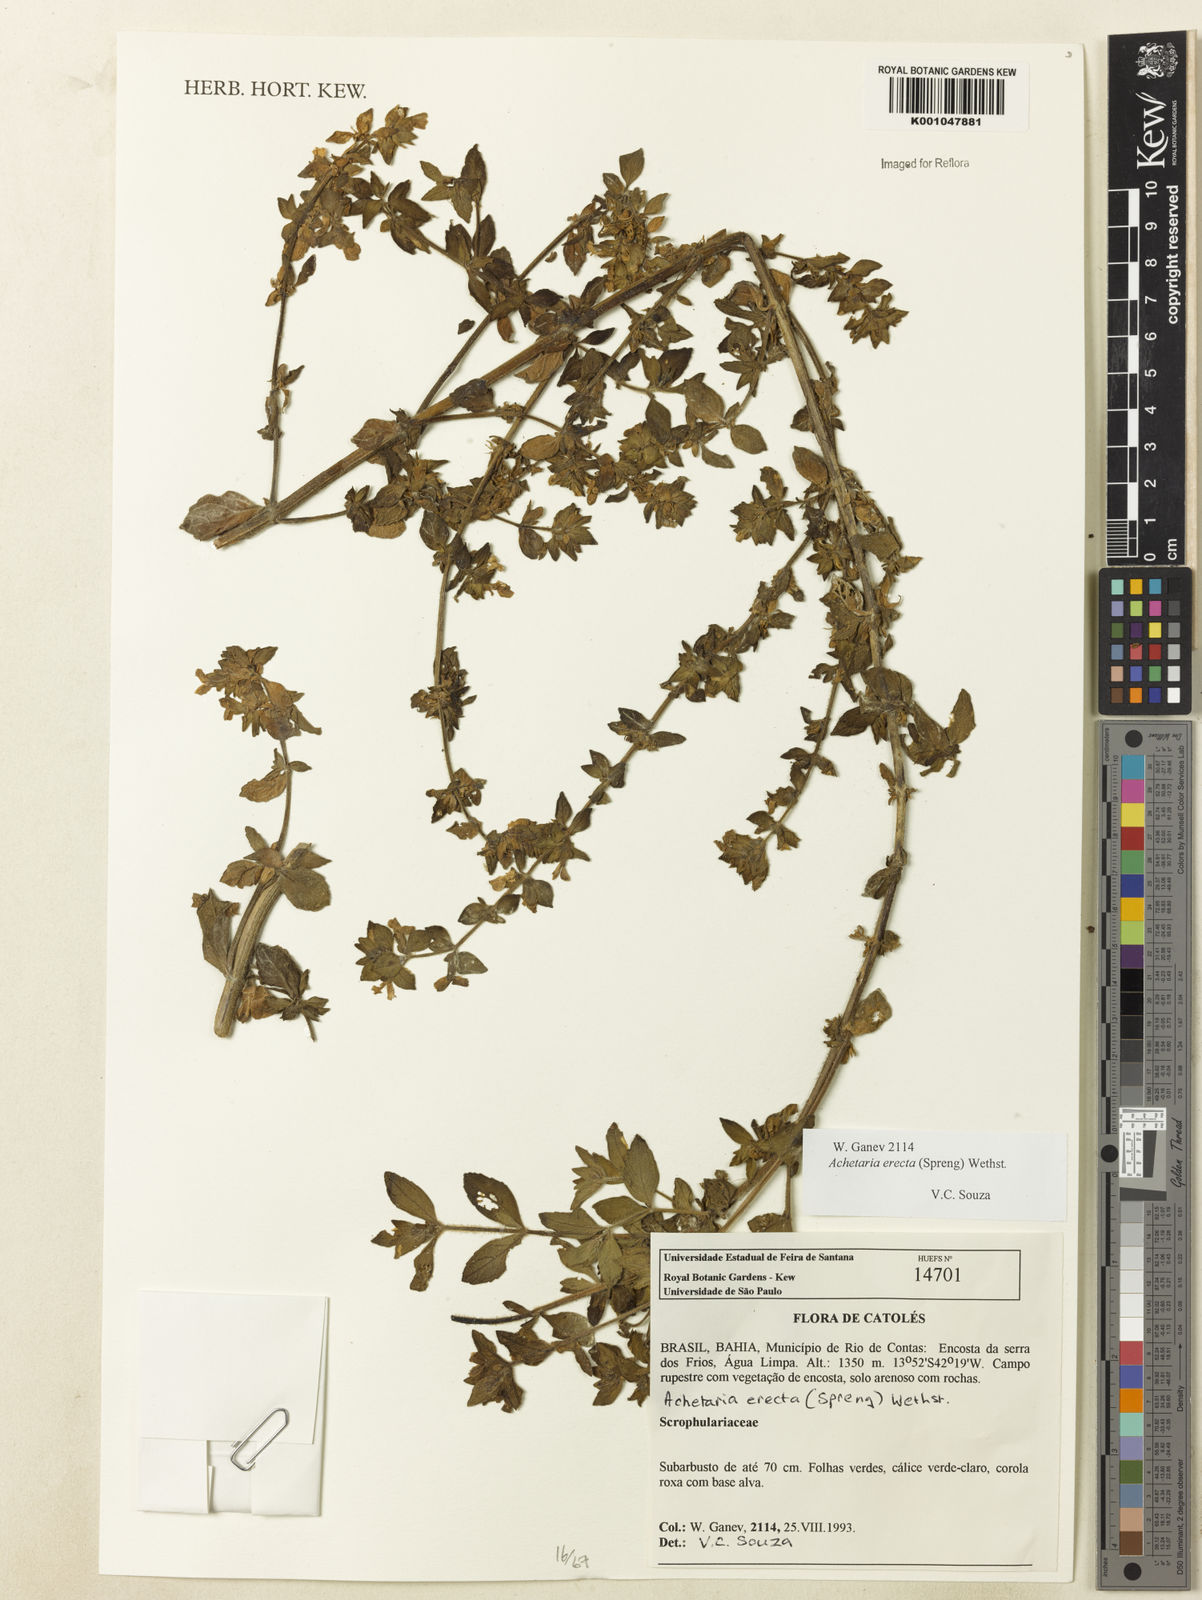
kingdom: Plantae
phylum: Tracheophyta
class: Magnoliopsida
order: Lamiales
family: Plantaginaceae
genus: Matourea
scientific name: Matourea erecta
